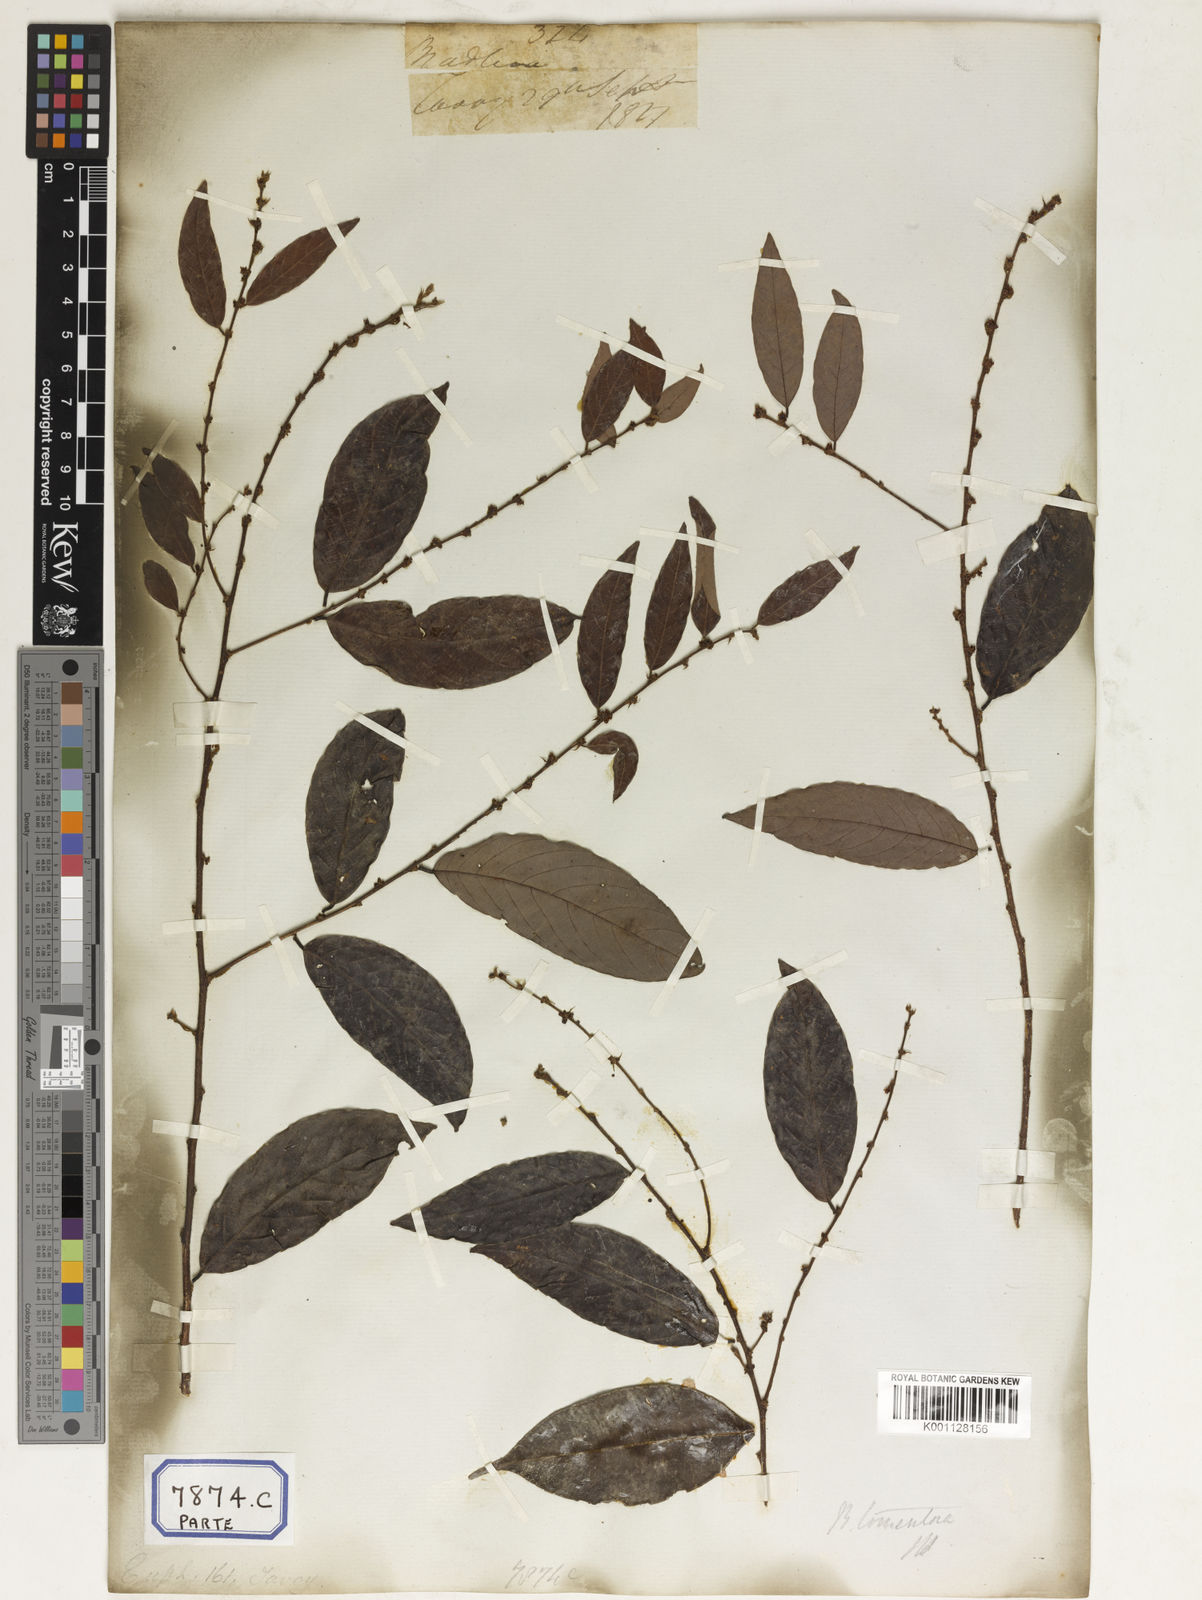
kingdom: Plantae
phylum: Tracheophyta
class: Magnoliopsida
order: Malpighiales
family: Euphorbiaceae
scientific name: Euphorbiaceae
